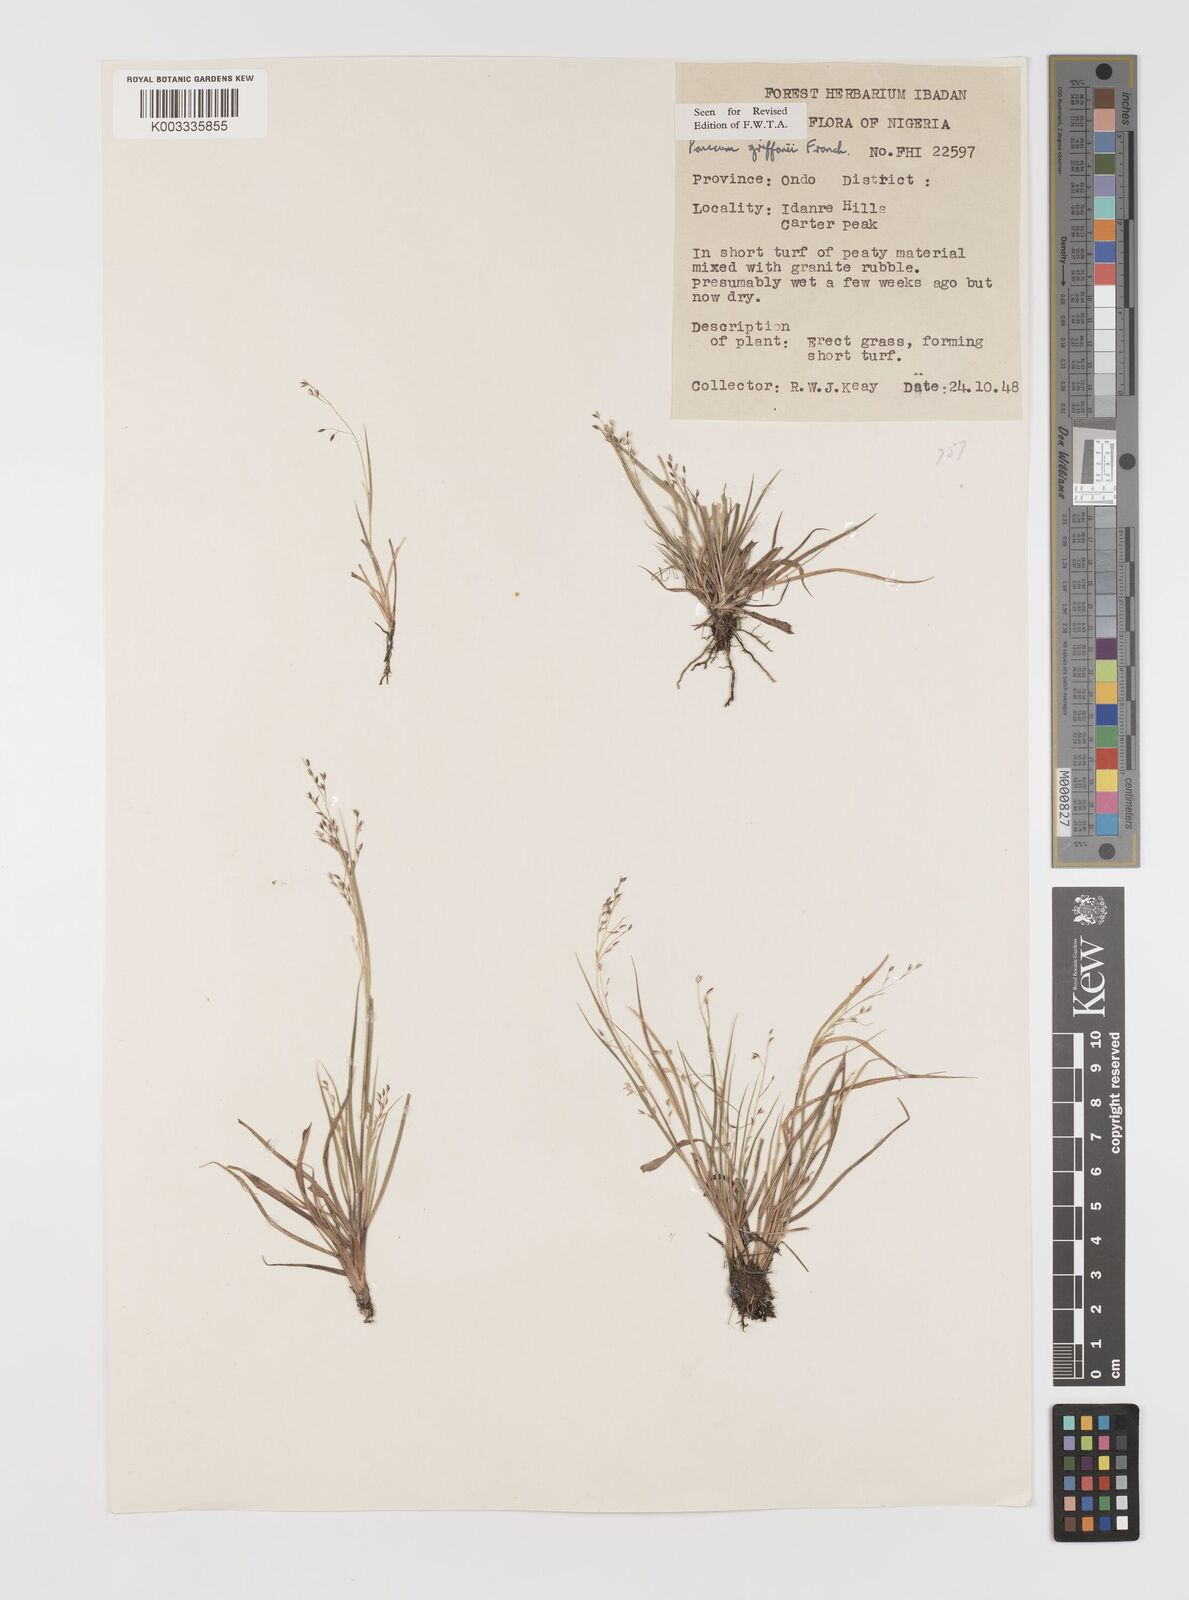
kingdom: Plantae
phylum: Tracheophyta
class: Liliopsida
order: Poales
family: Poaceae
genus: Panicum
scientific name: Panicum griffonii
